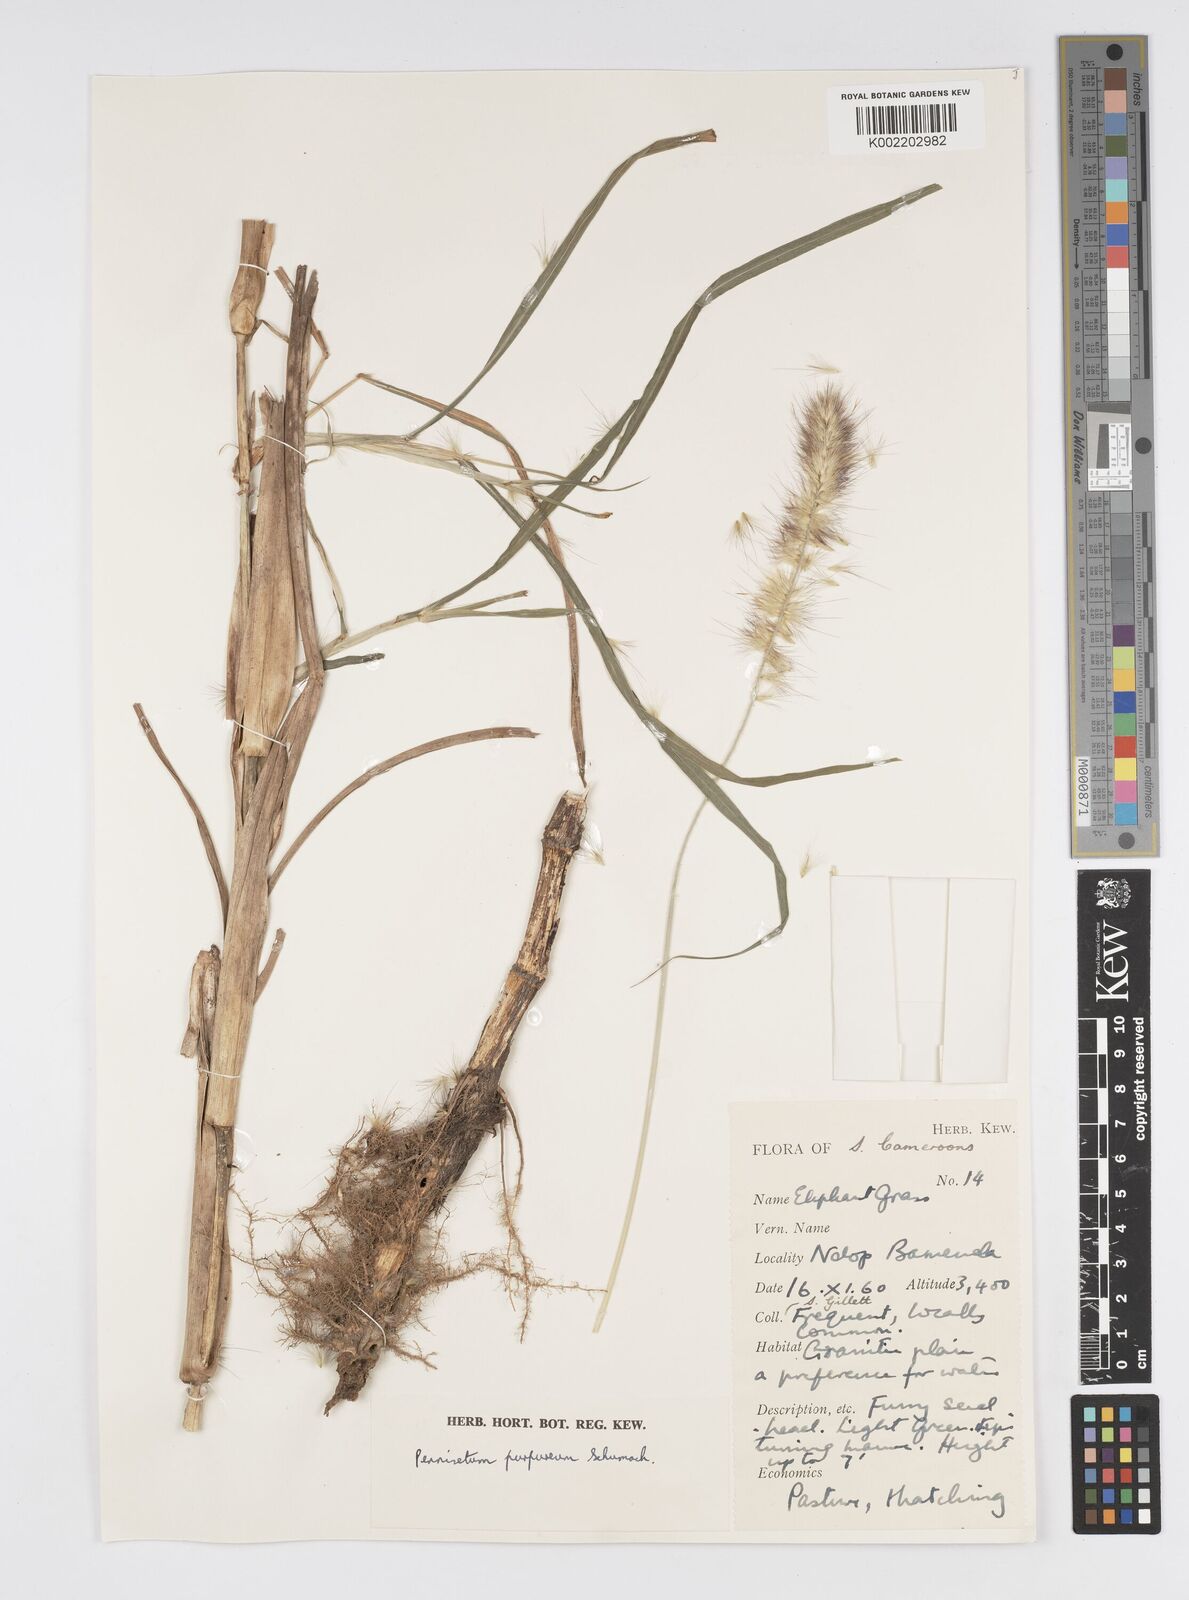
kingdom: Plantae
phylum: Tracheophyta
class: Liliopsida
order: Poales
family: Poaceae
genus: Cenchrus
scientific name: Cenchrus purpureus
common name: Elephant grass
